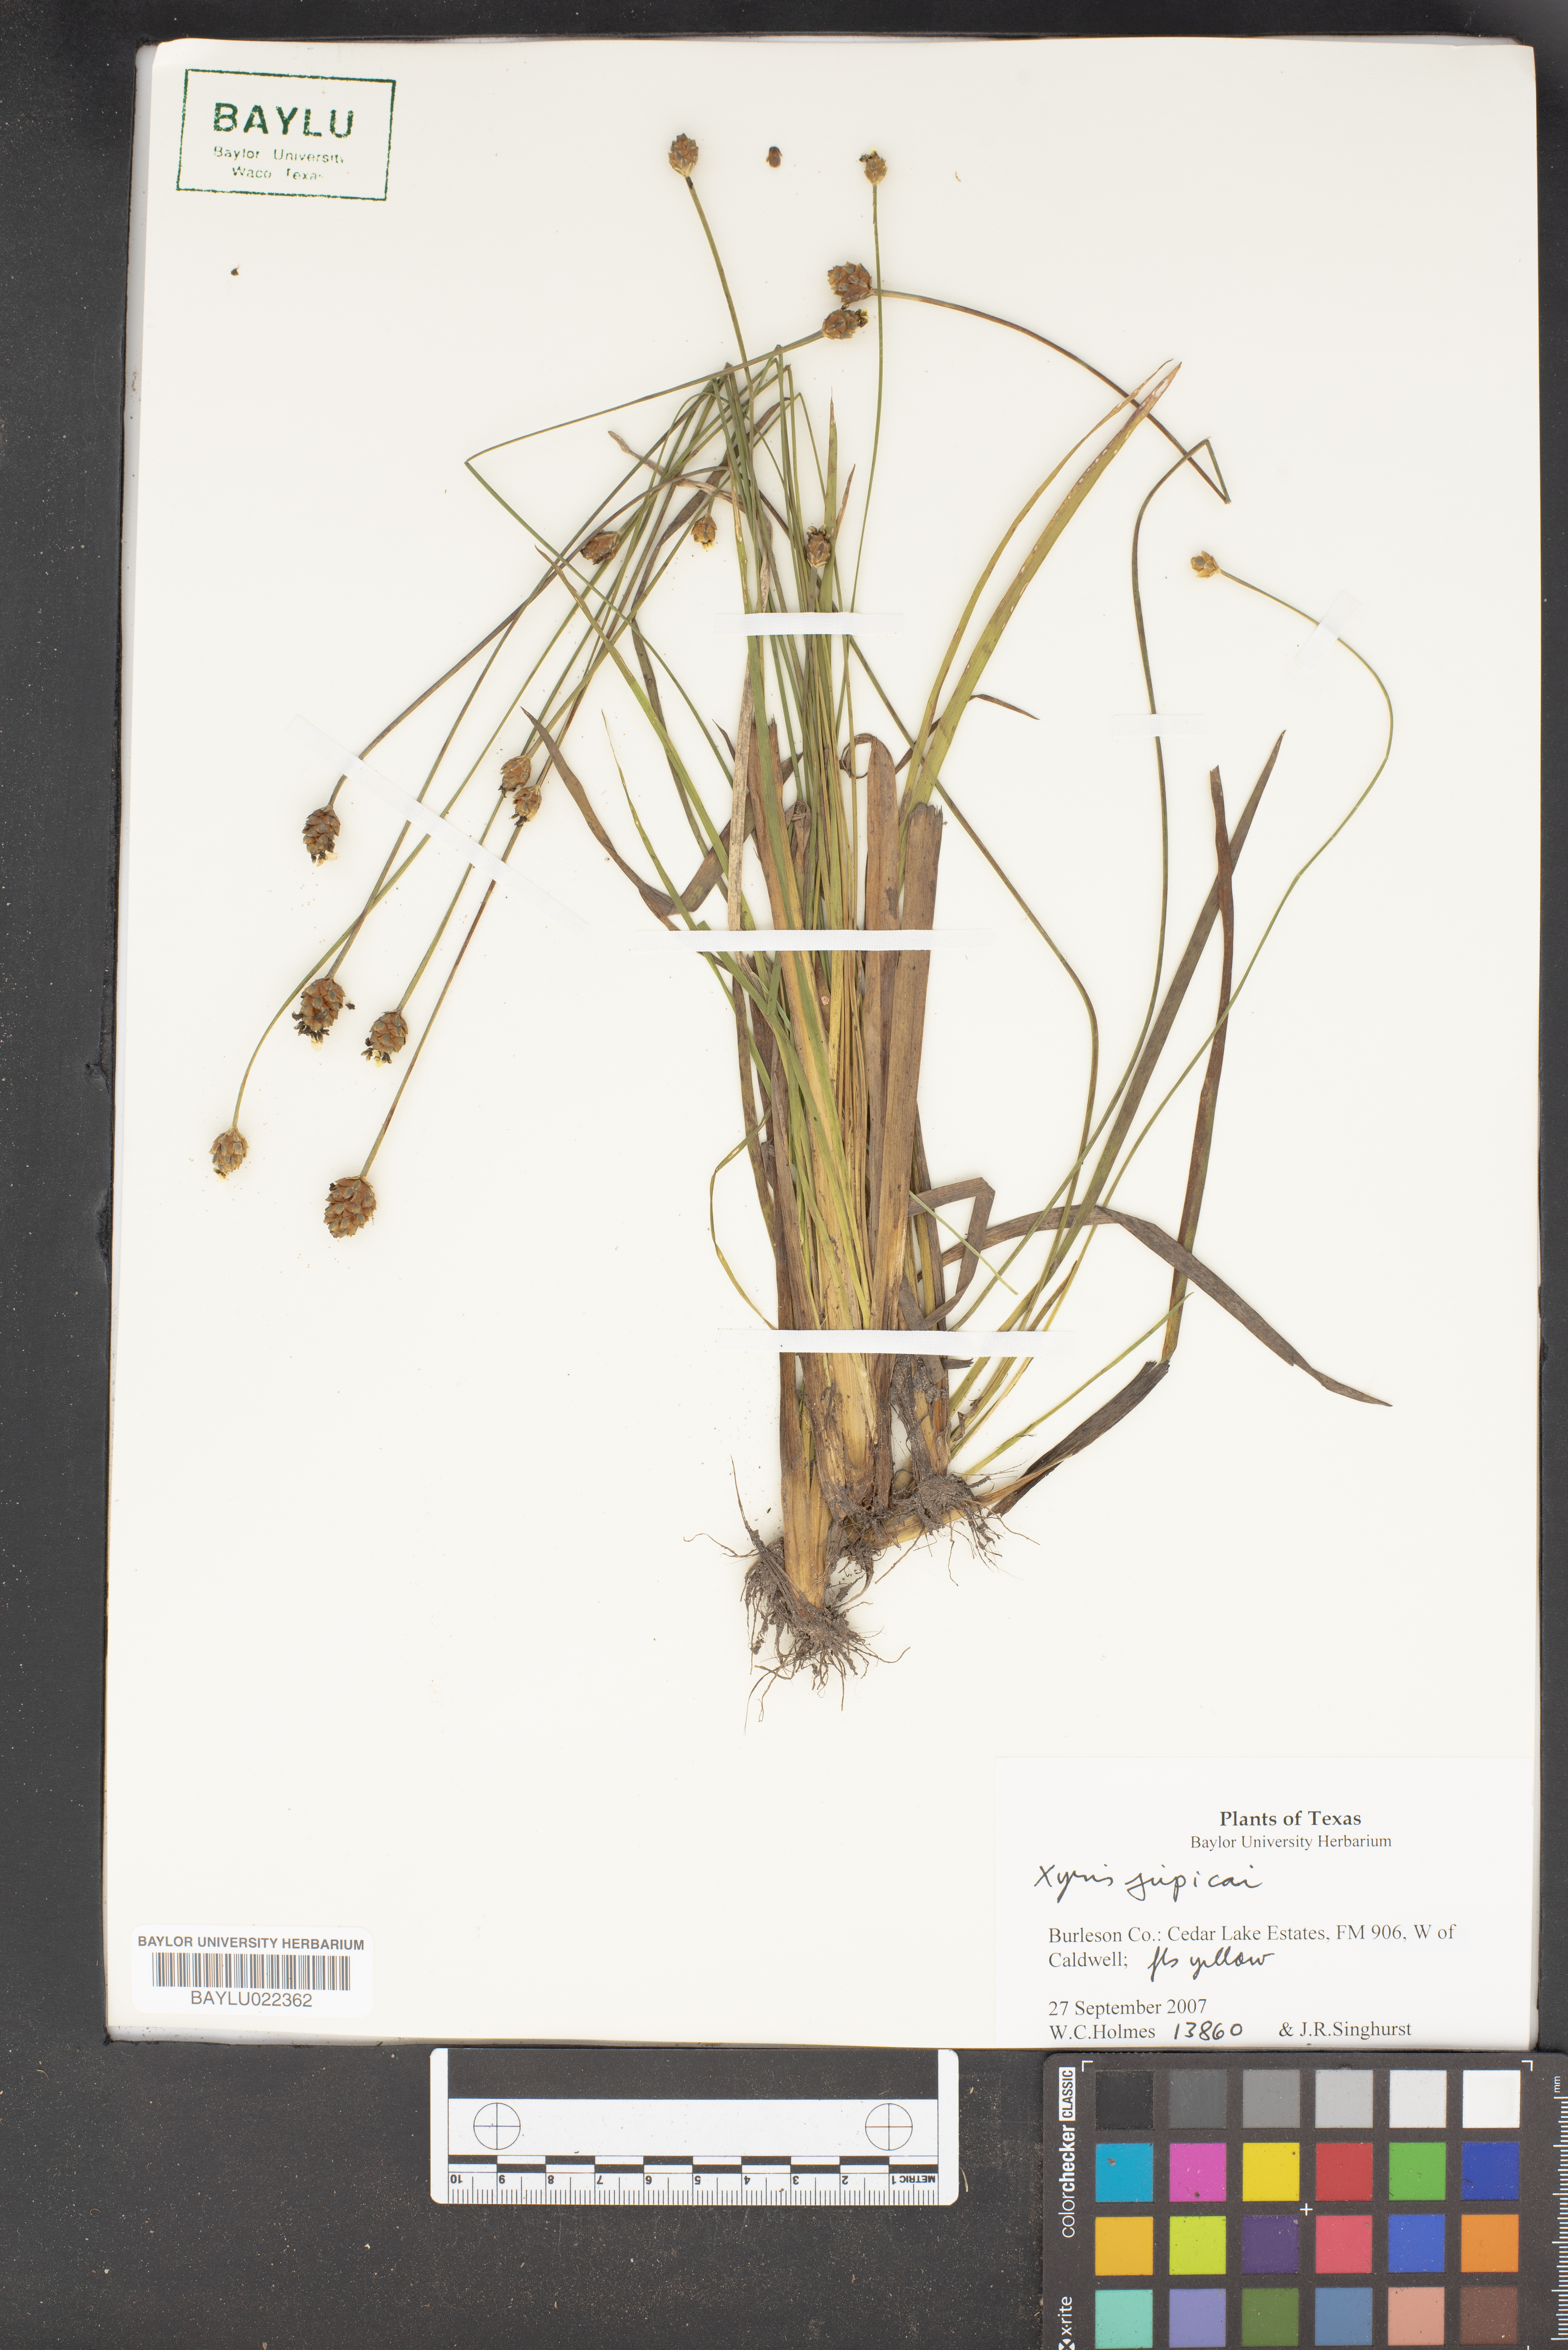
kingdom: Plantae
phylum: Tracheophyta
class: Liliopsida
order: Poales
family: Xyridaceae
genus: Xyris
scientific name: Xyris jupicai
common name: Richard's yelloweyed grass
